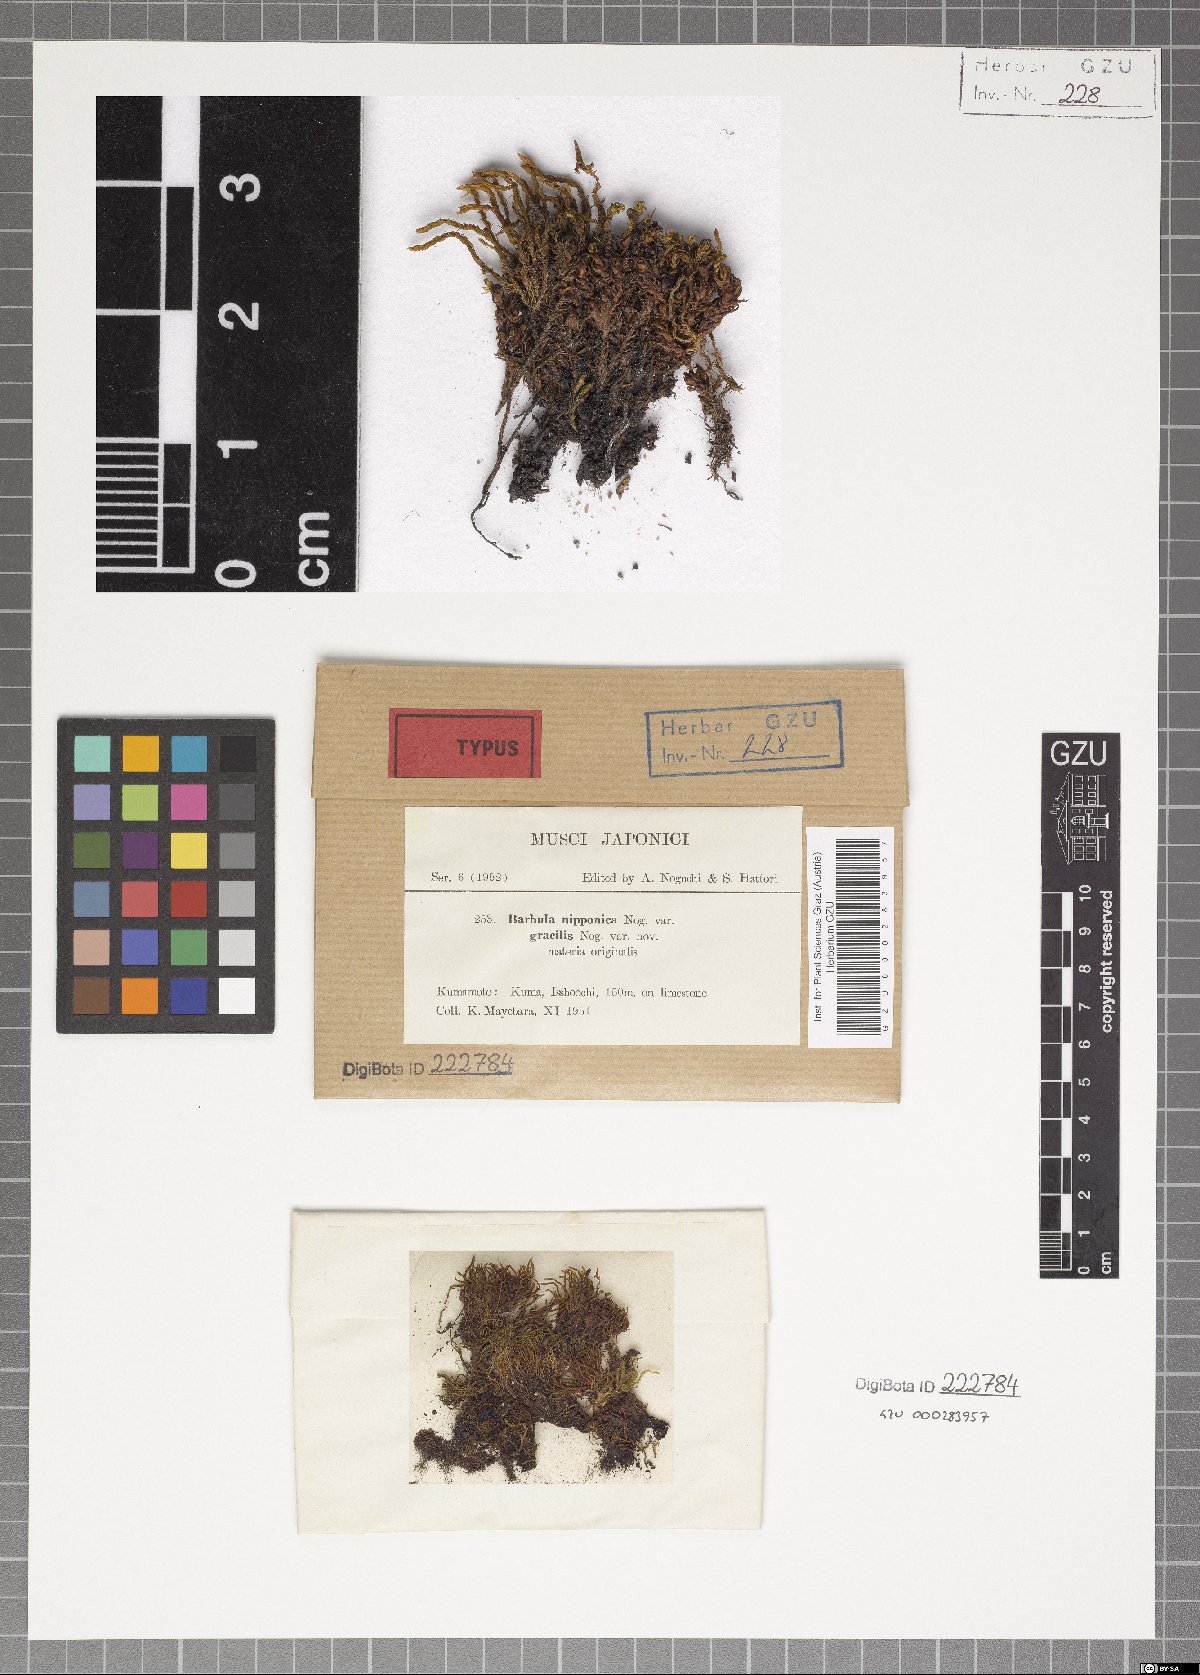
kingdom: Plantae
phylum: Bryophyta
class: Bryopsida
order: Pottiales
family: Pottiaceae
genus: Didymodon
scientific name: Didymodon constrictus
